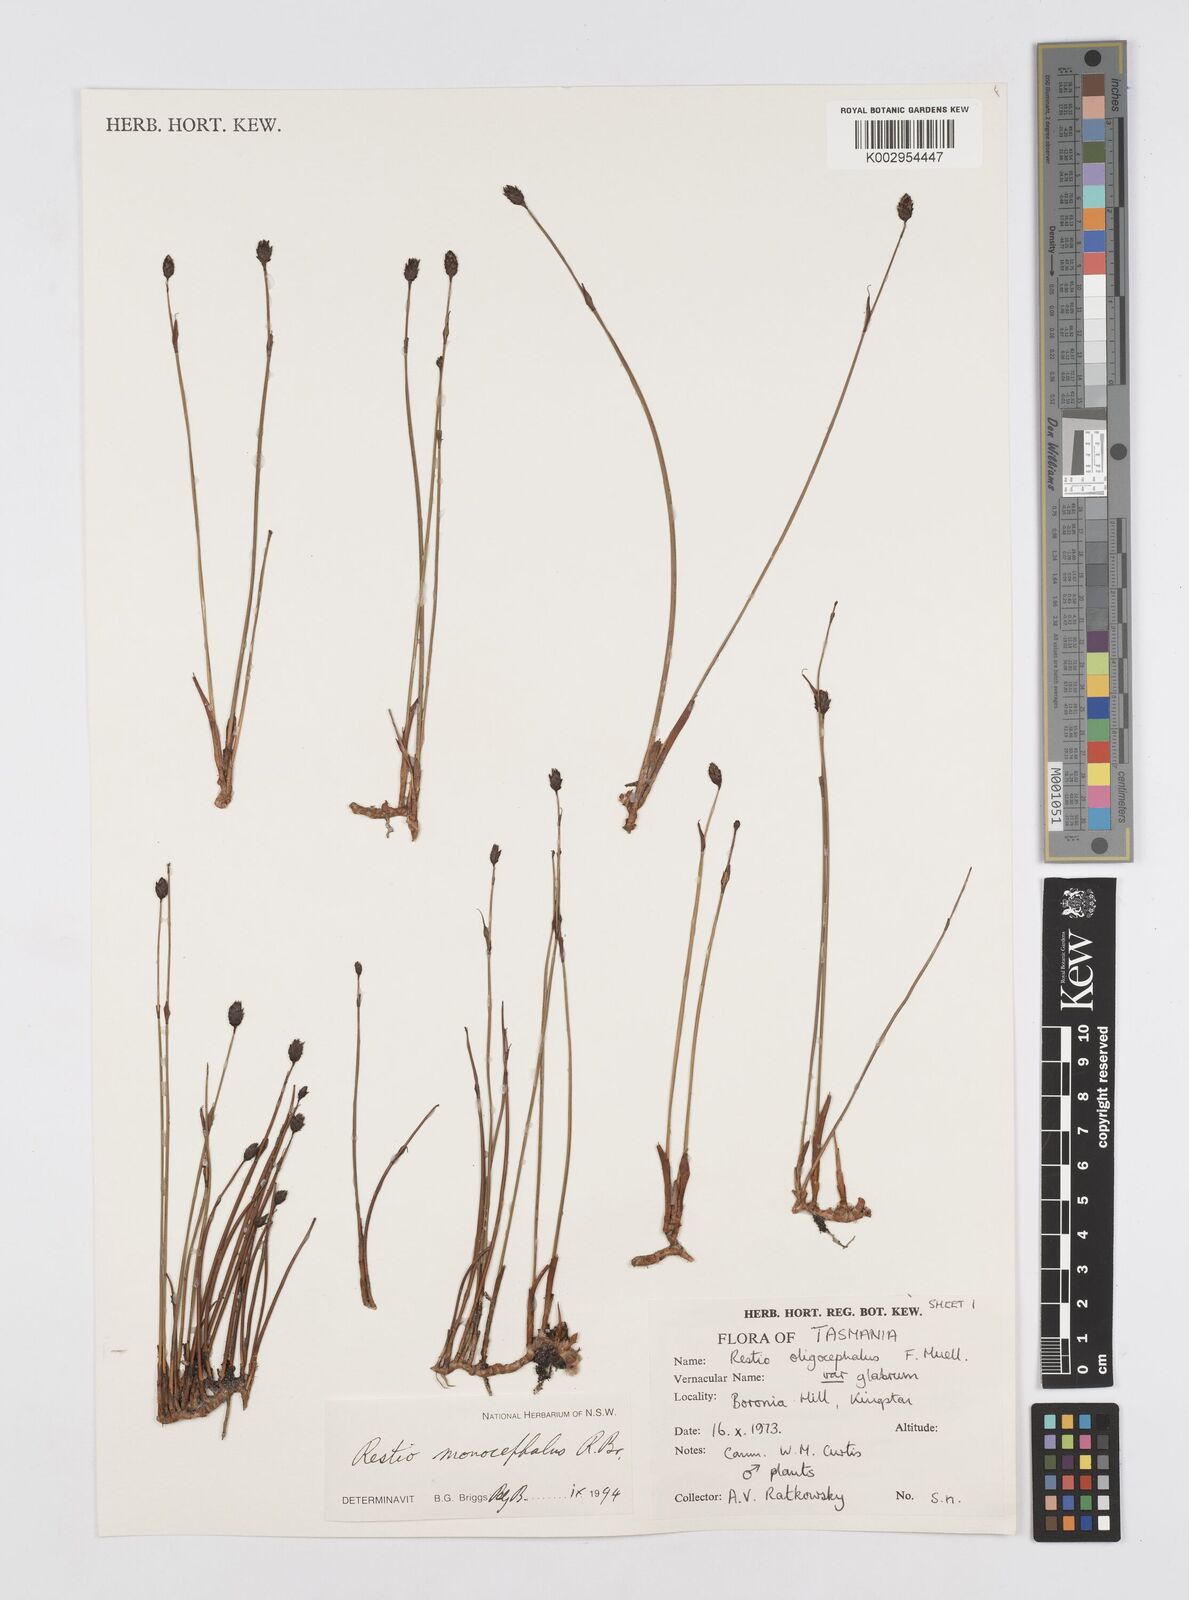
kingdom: Plantae
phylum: Tracheophyta
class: Liliopsida
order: Poales
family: Restionaceae
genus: Chordifex
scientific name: Chordifex monocephalus
